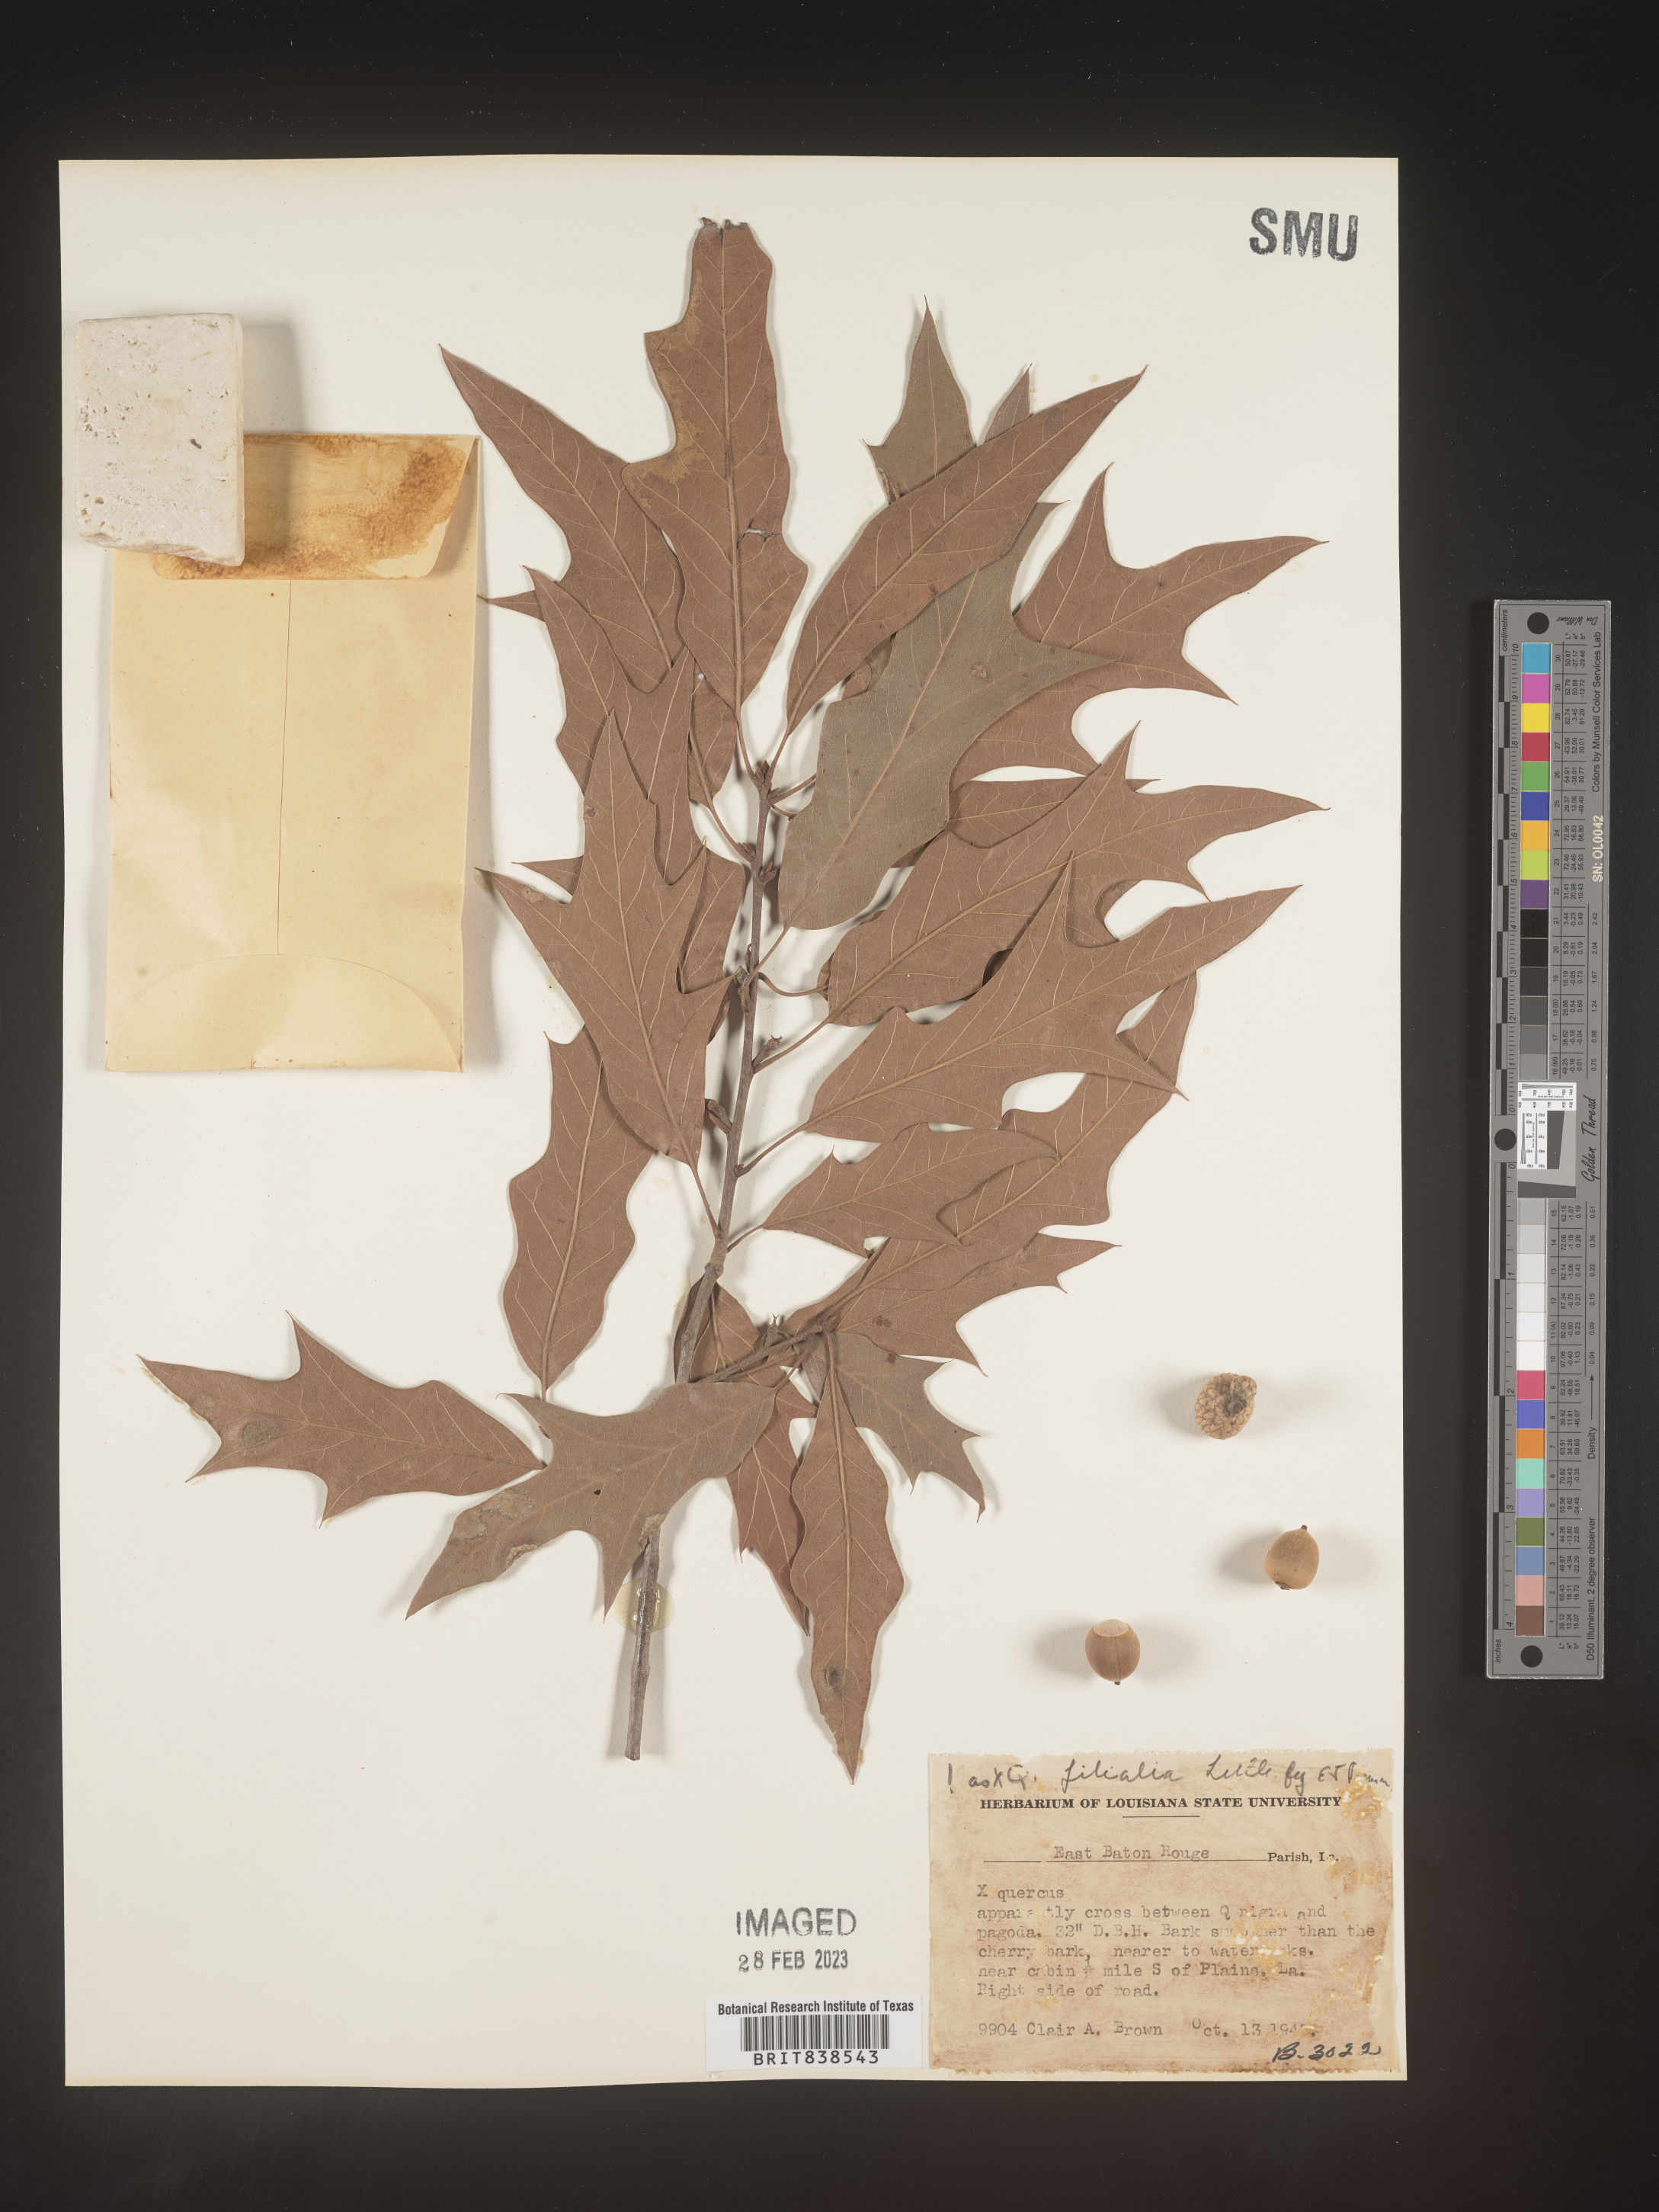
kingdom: Plantae
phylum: Tracheophyta
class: Magnoliopsida
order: Fagales
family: Fagaceae
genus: Quercus
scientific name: Quercus
